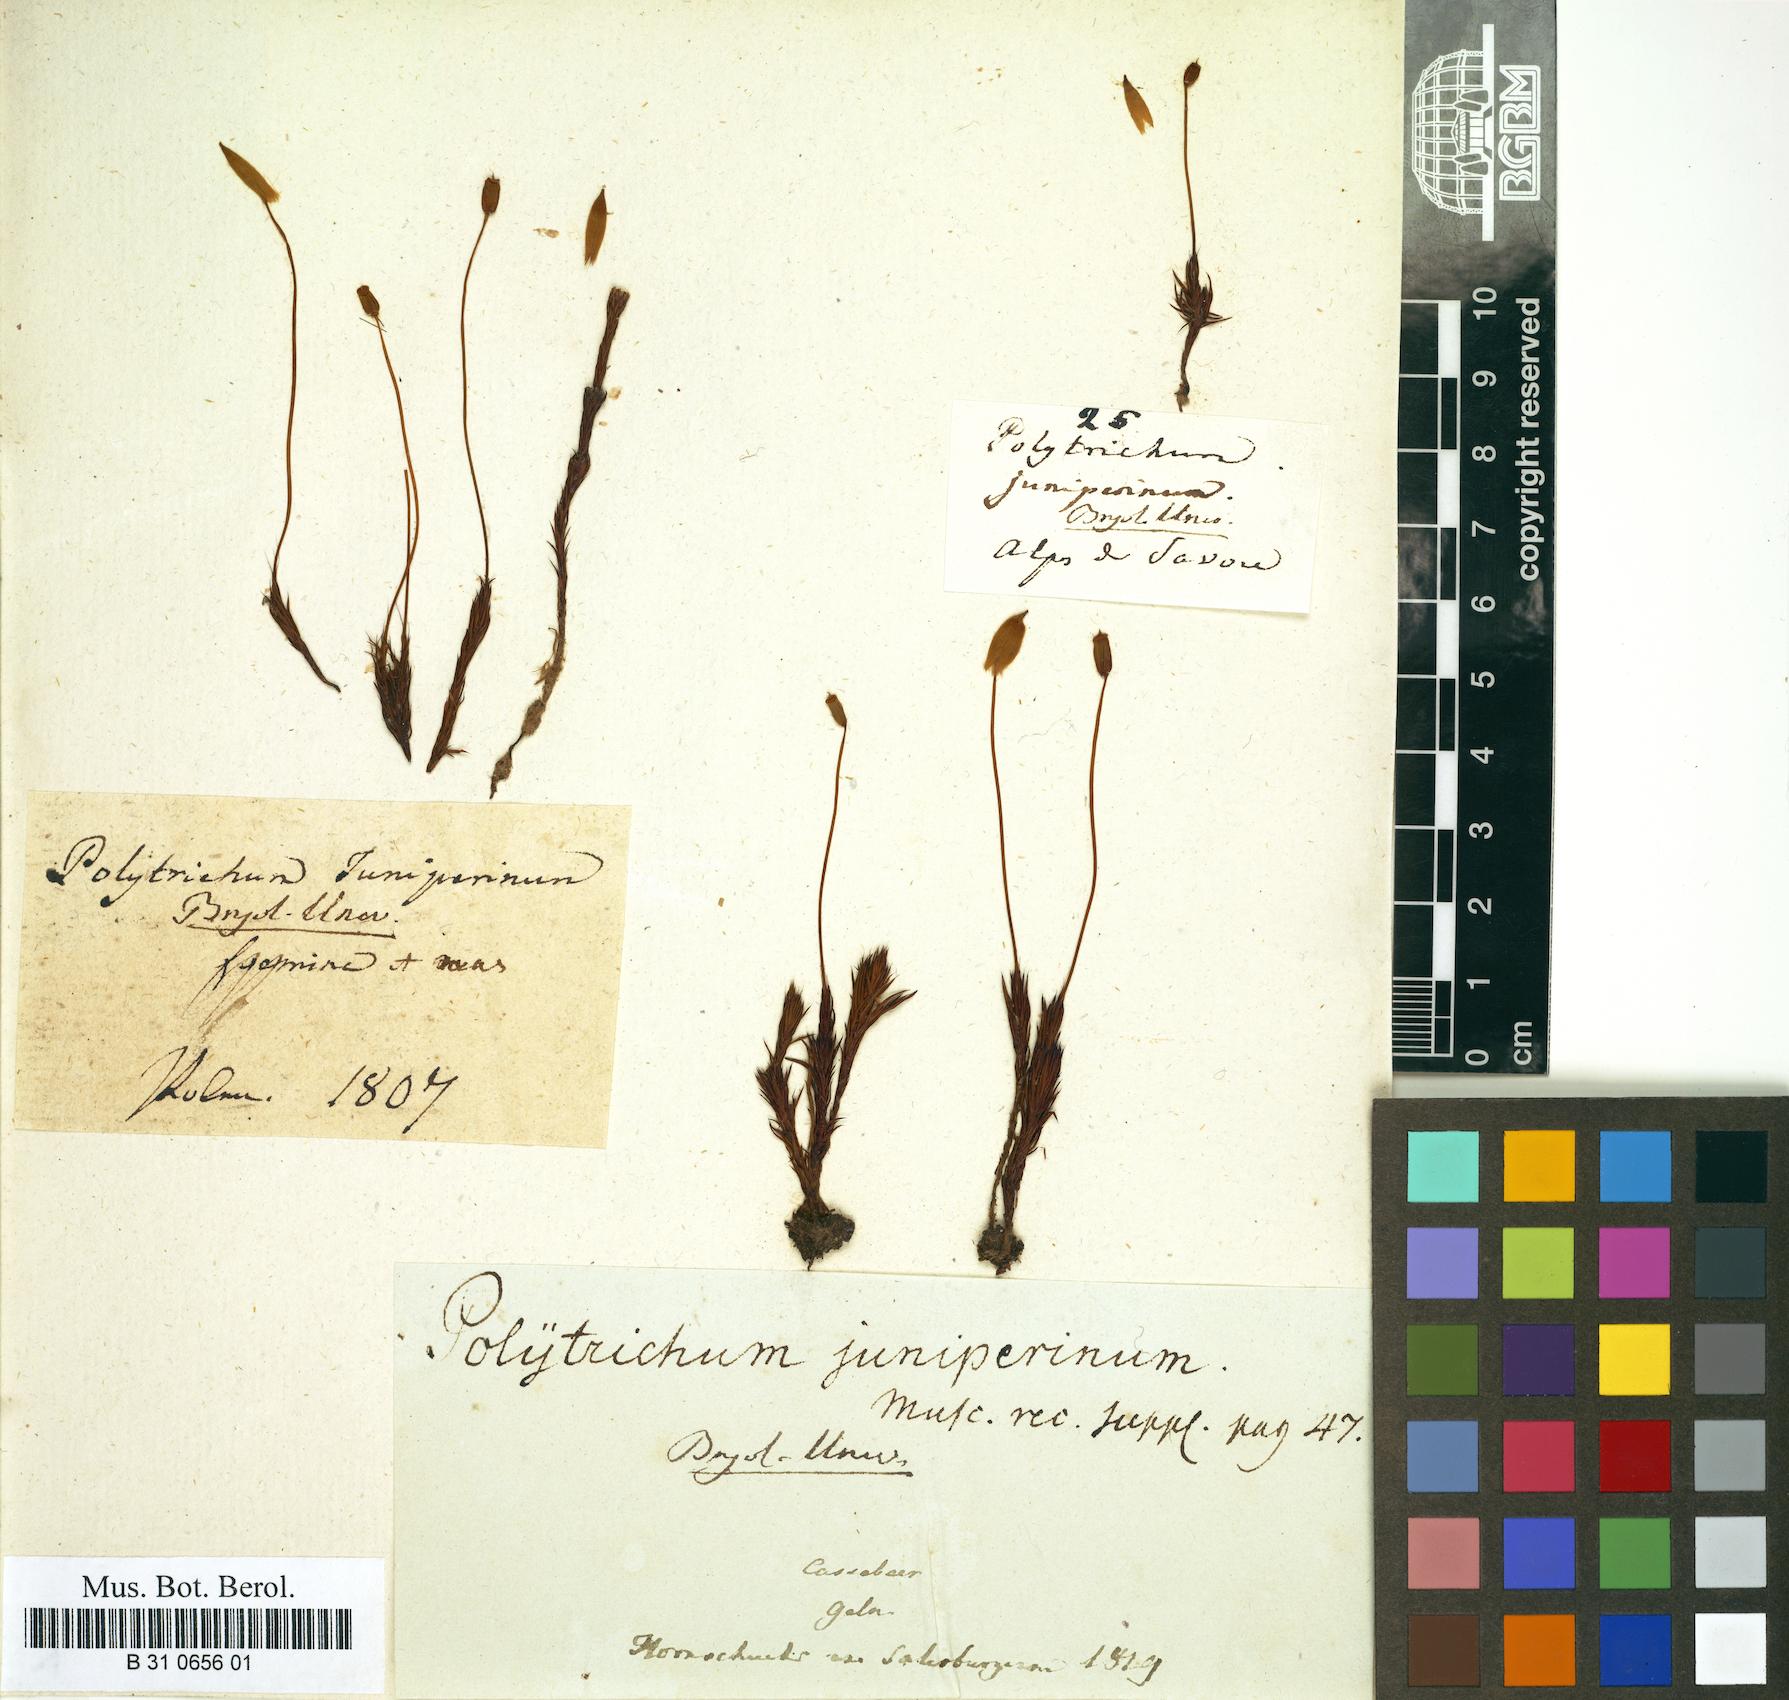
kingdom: Plantae
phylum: Bryophyta
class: Polytrichopsida
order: Polytrichales
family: Polytrichaceae
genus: Polytrichum
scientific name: Polytrichum juniperinum
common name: Juniper haircap moss
